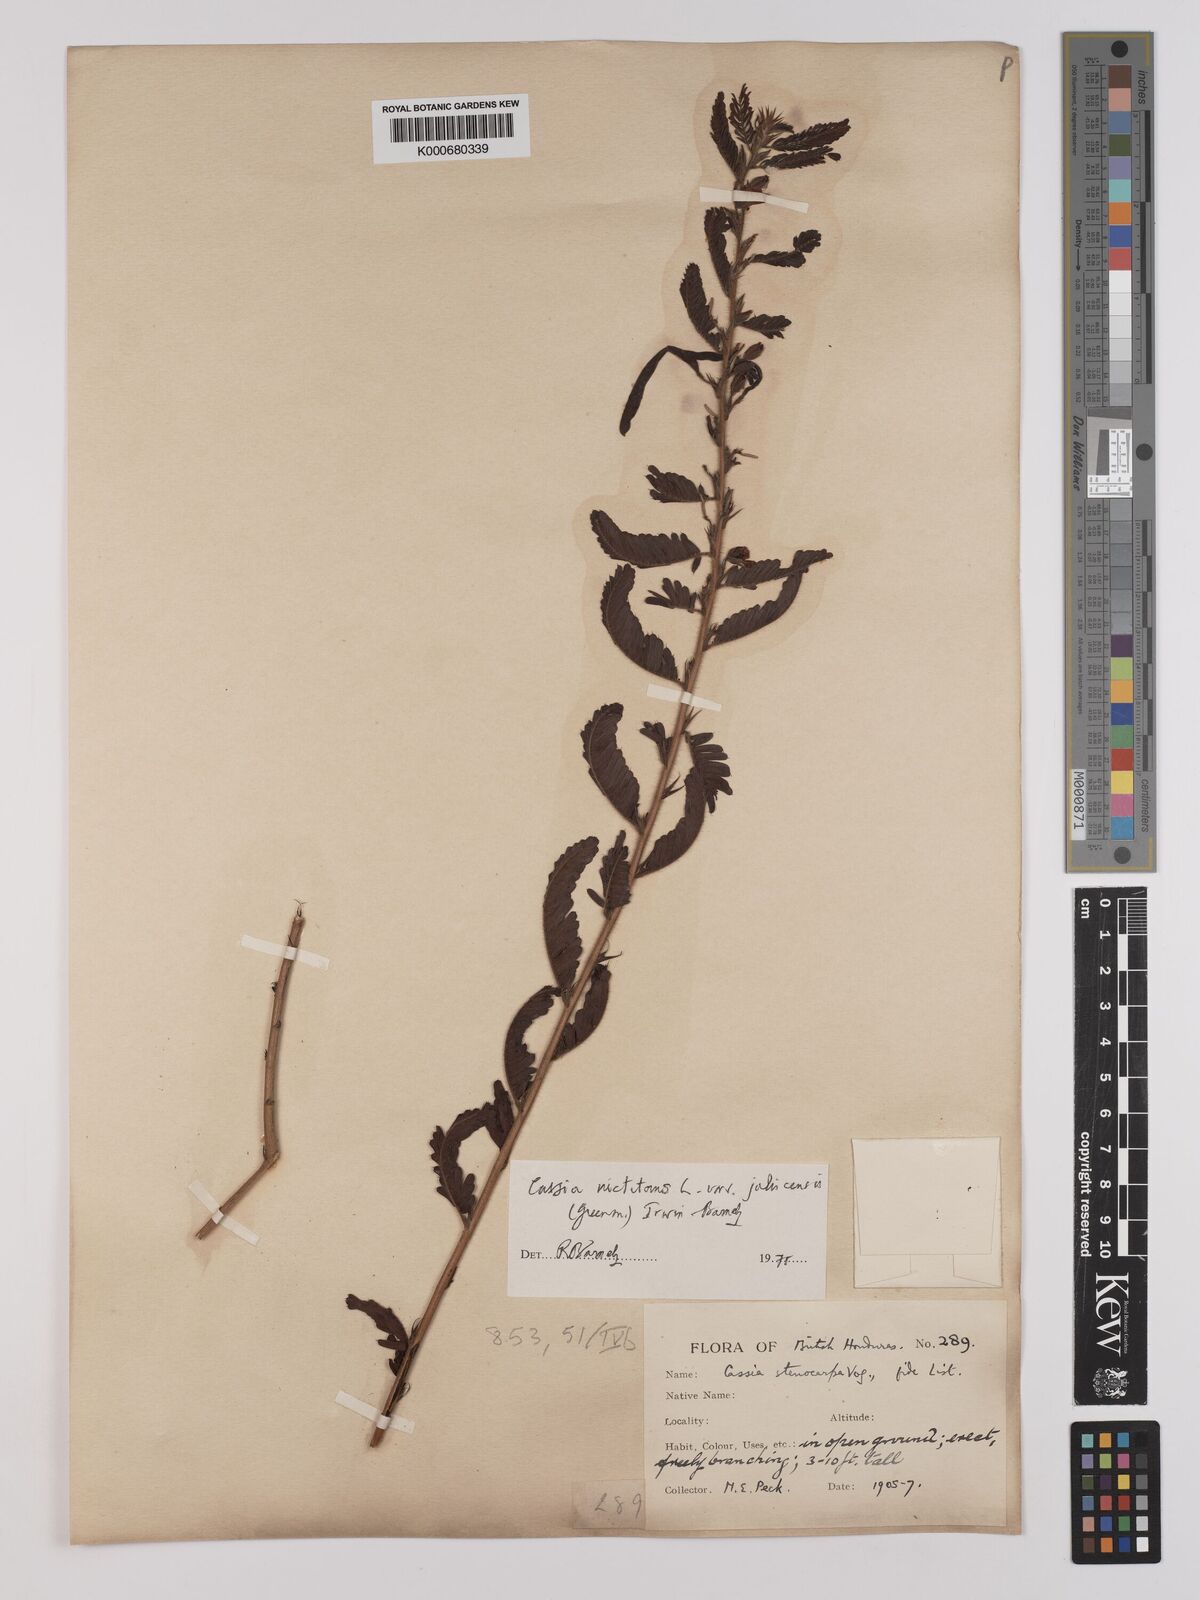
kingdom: Plantae
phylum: Tracheophyta
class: Magnoliopsida
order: Fabales
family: Fabaceae
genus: Chamaecrista
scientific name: Chamaecrista nictitans
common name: Sensitive cassia
